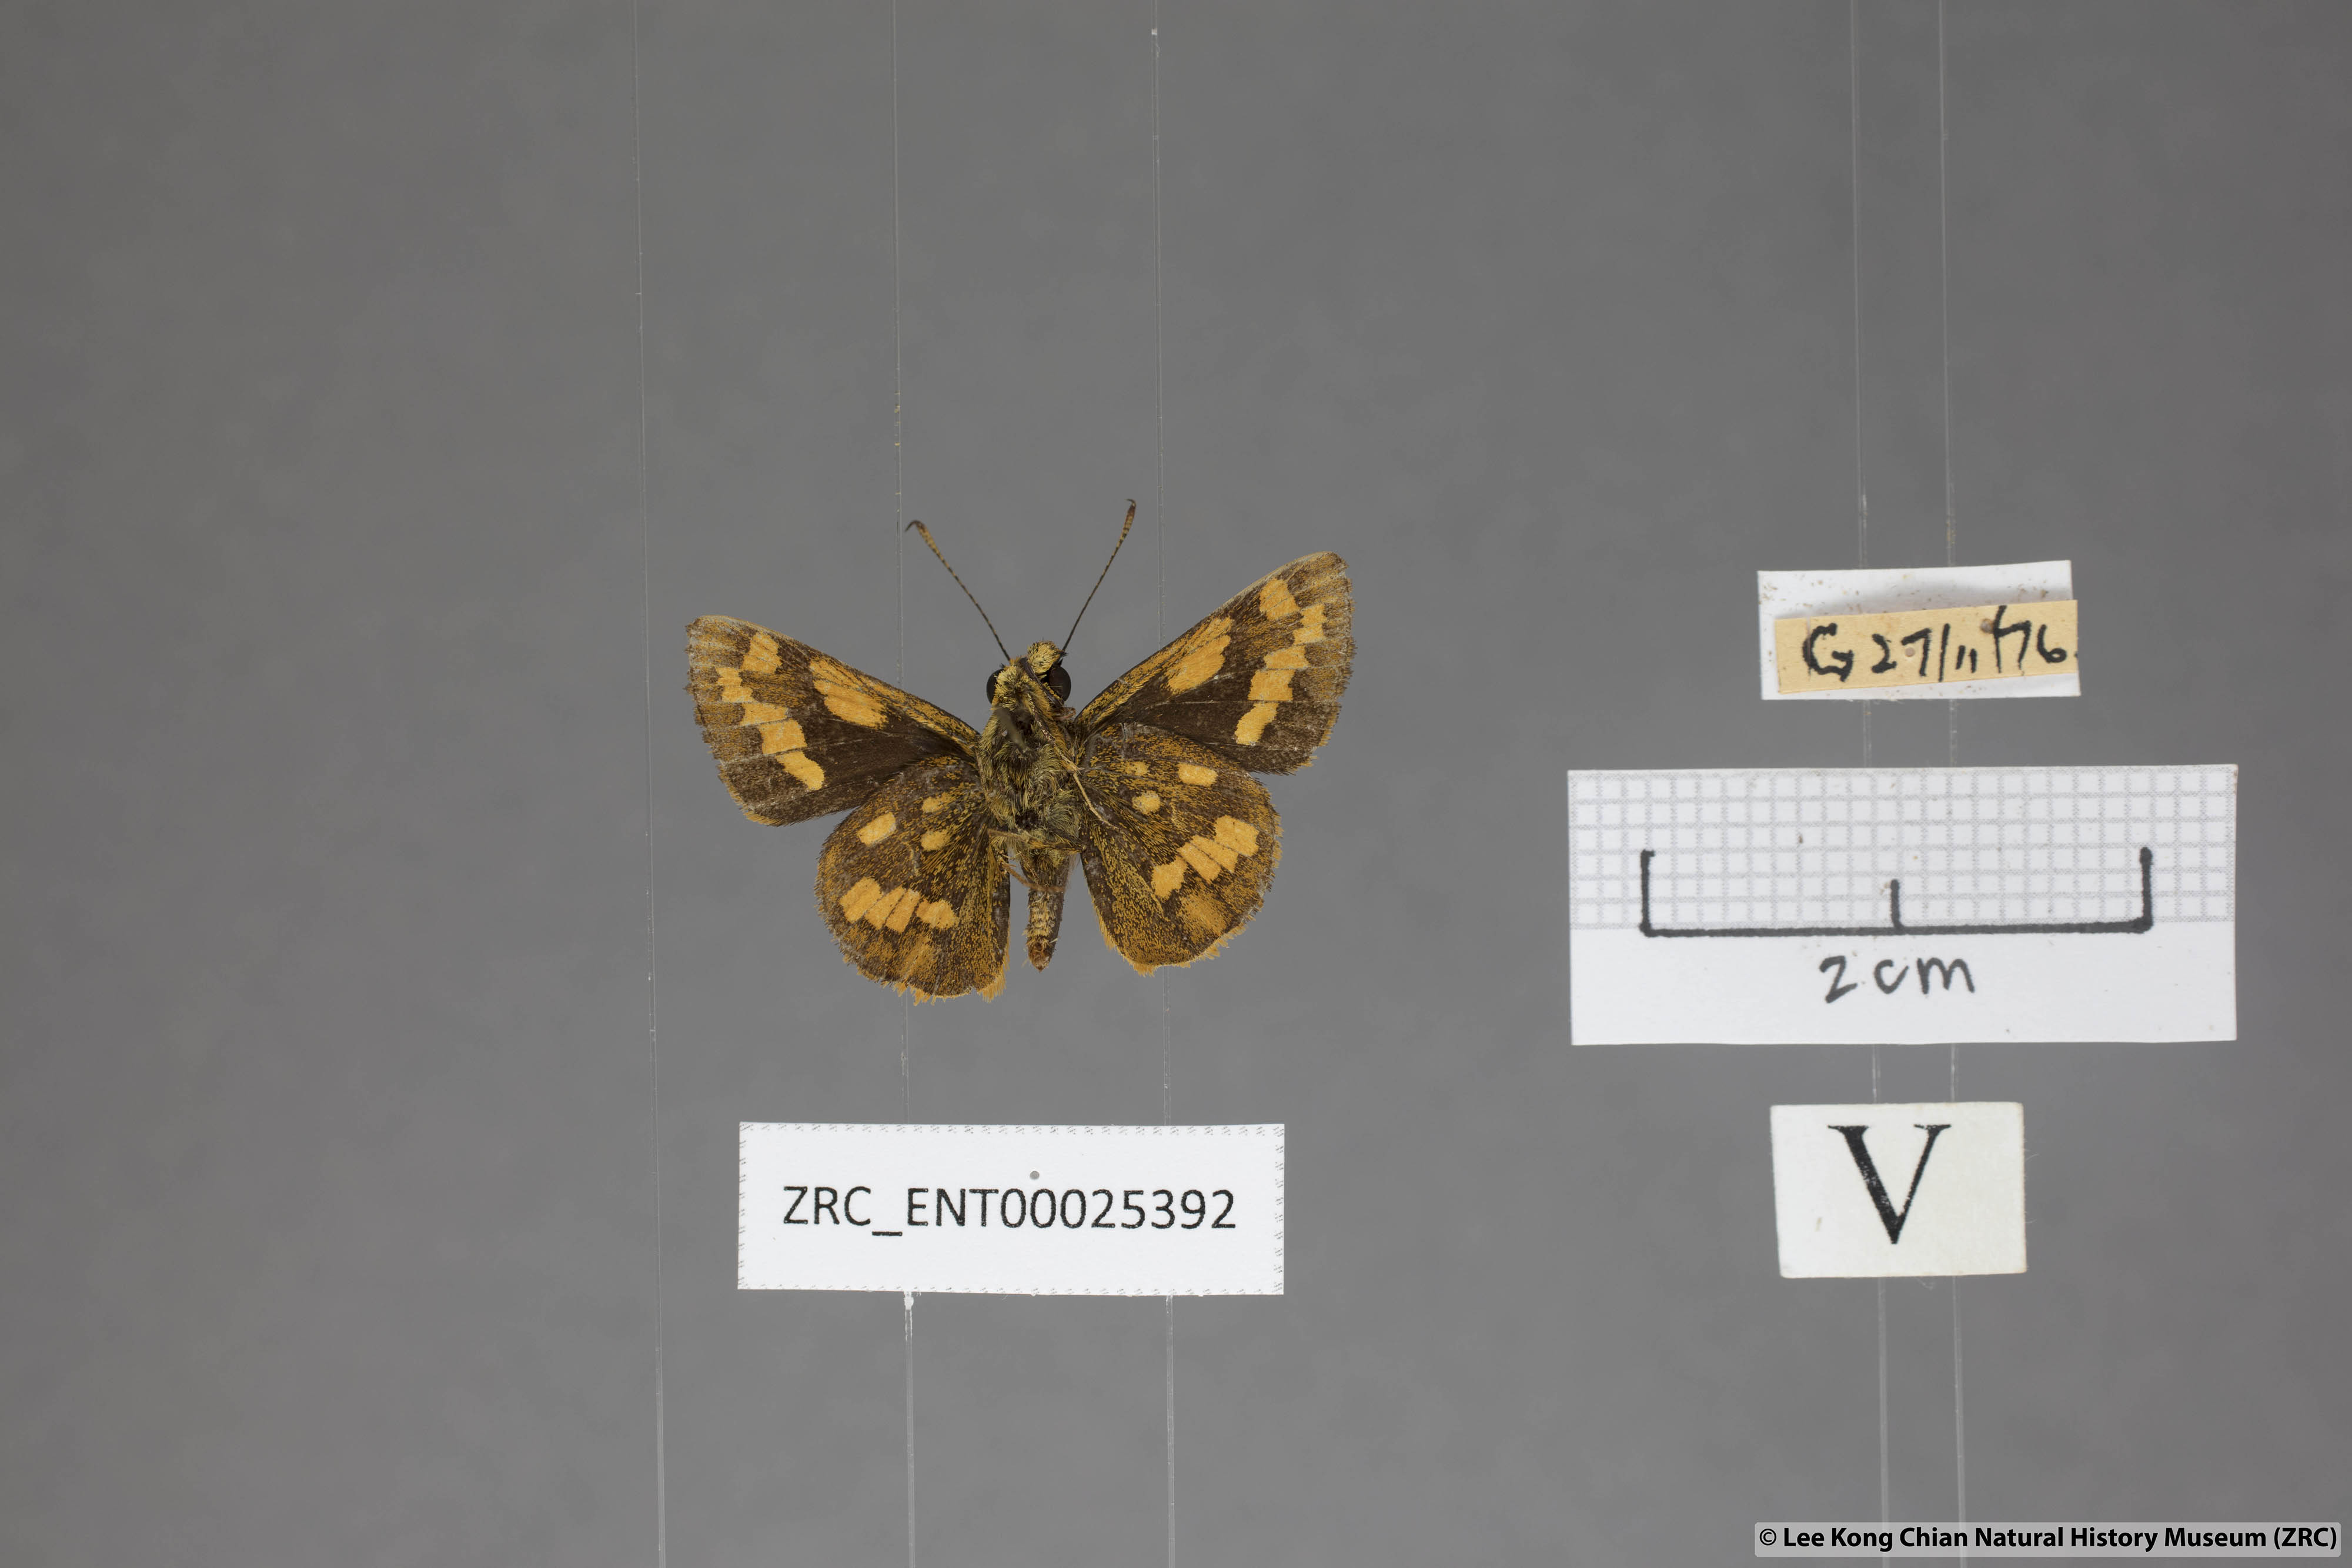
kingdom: Animalia
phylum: Arthropoda
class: Insecta
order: Lepidoptera
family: Hesperiidae
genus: Potanthus
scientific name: Potanthus ganda
